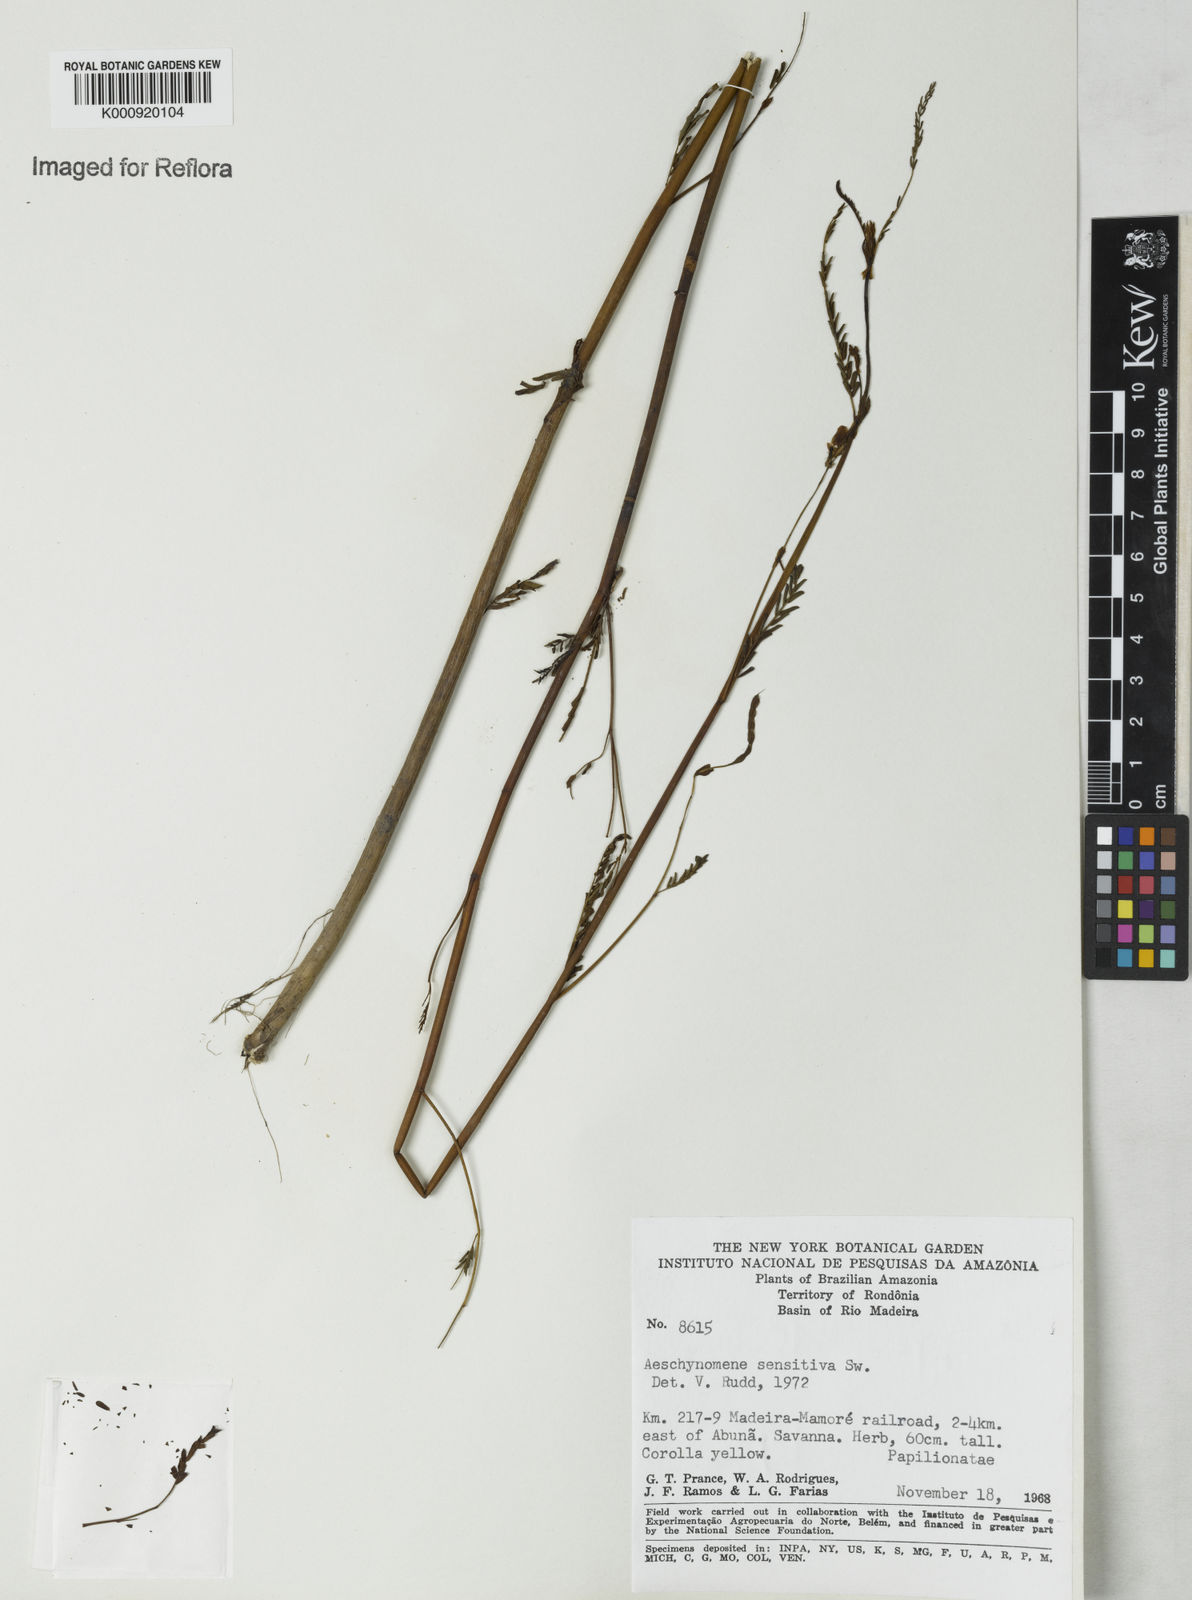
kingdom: Plantae
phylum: Tracheophyta
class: Magnoliopsida
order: Fabales
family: Fabaceae
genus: Aeschynomene
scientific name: Aeschynomene sensitiva
